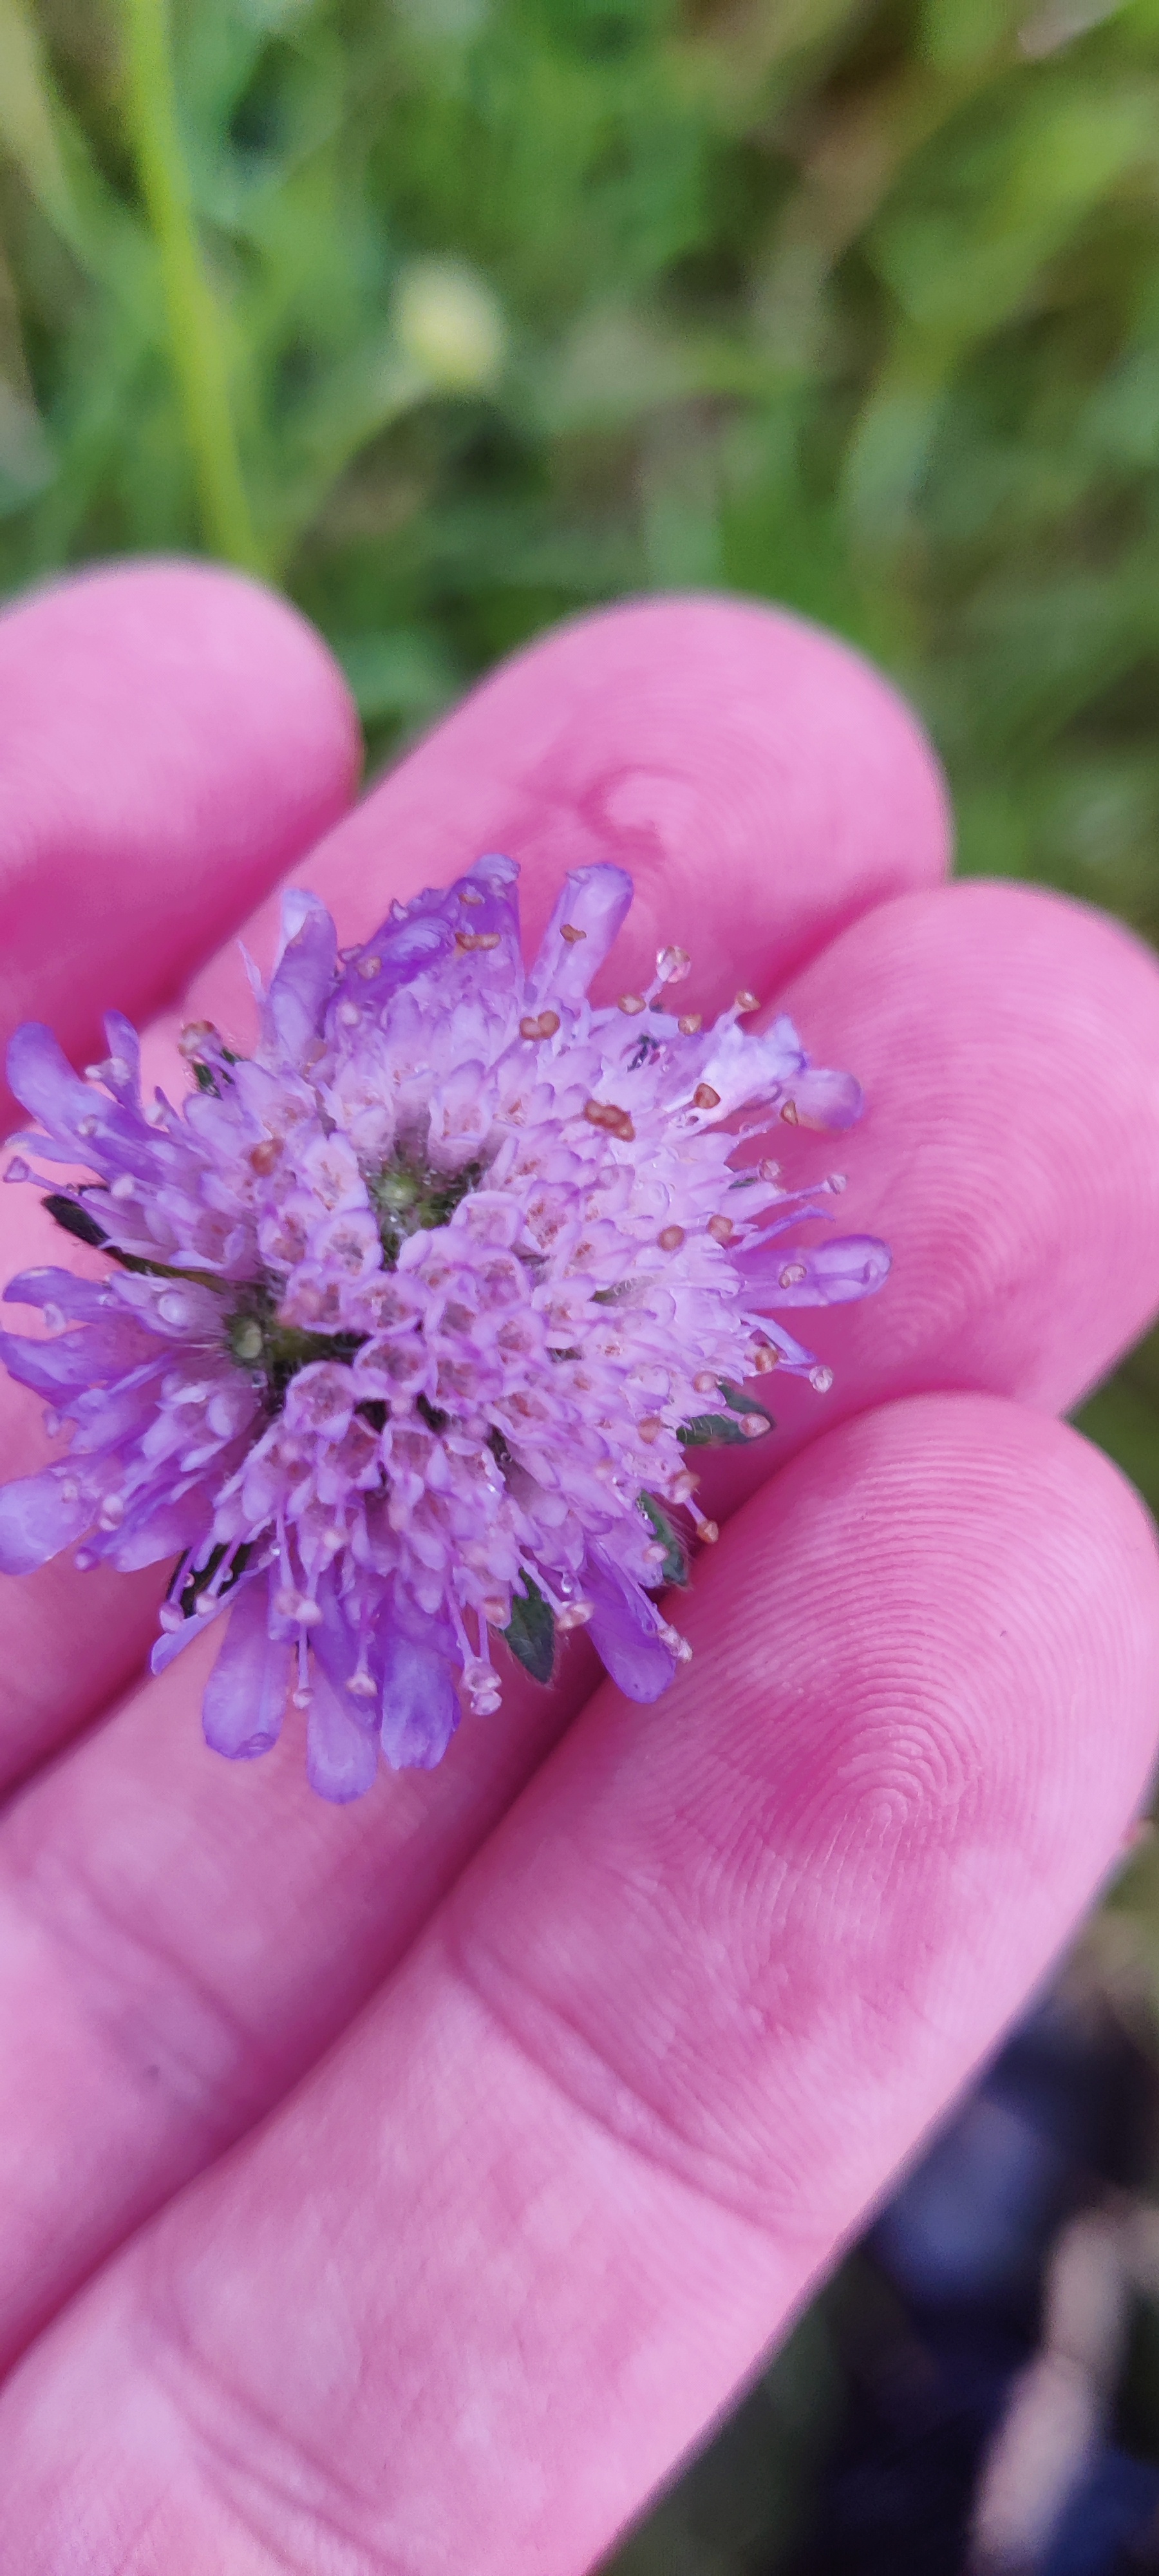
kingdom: Plantae
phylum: Tracheophyta
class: Magnoliopsida
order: Dipsacales
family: Caprifoliaceae
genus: Knautia
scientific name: Knautia arvensis
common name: Blåhat
